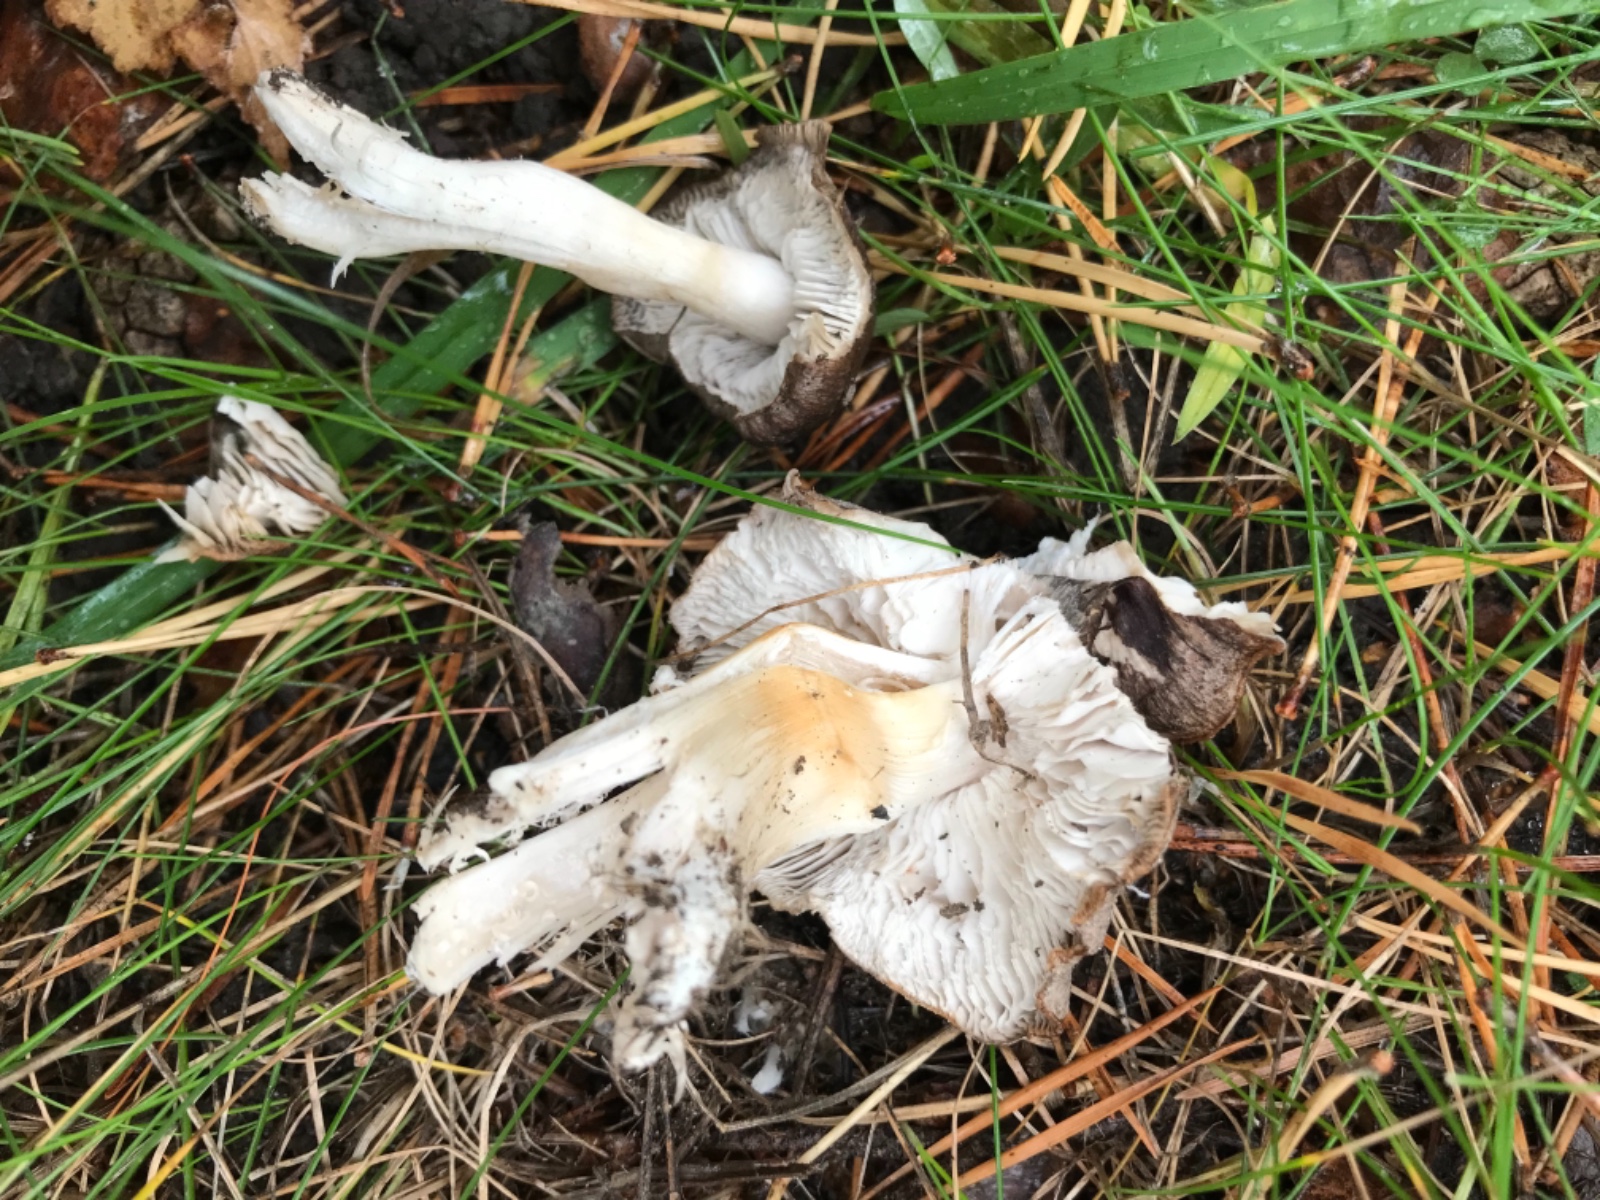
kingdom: Fungi
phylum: Basidiomycota
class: Agaricomycetes
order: Agaricales
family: Tricholomataceae
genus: Tricholoma
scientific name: Tricholoma virgatum
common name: nålestribet ridderhat
